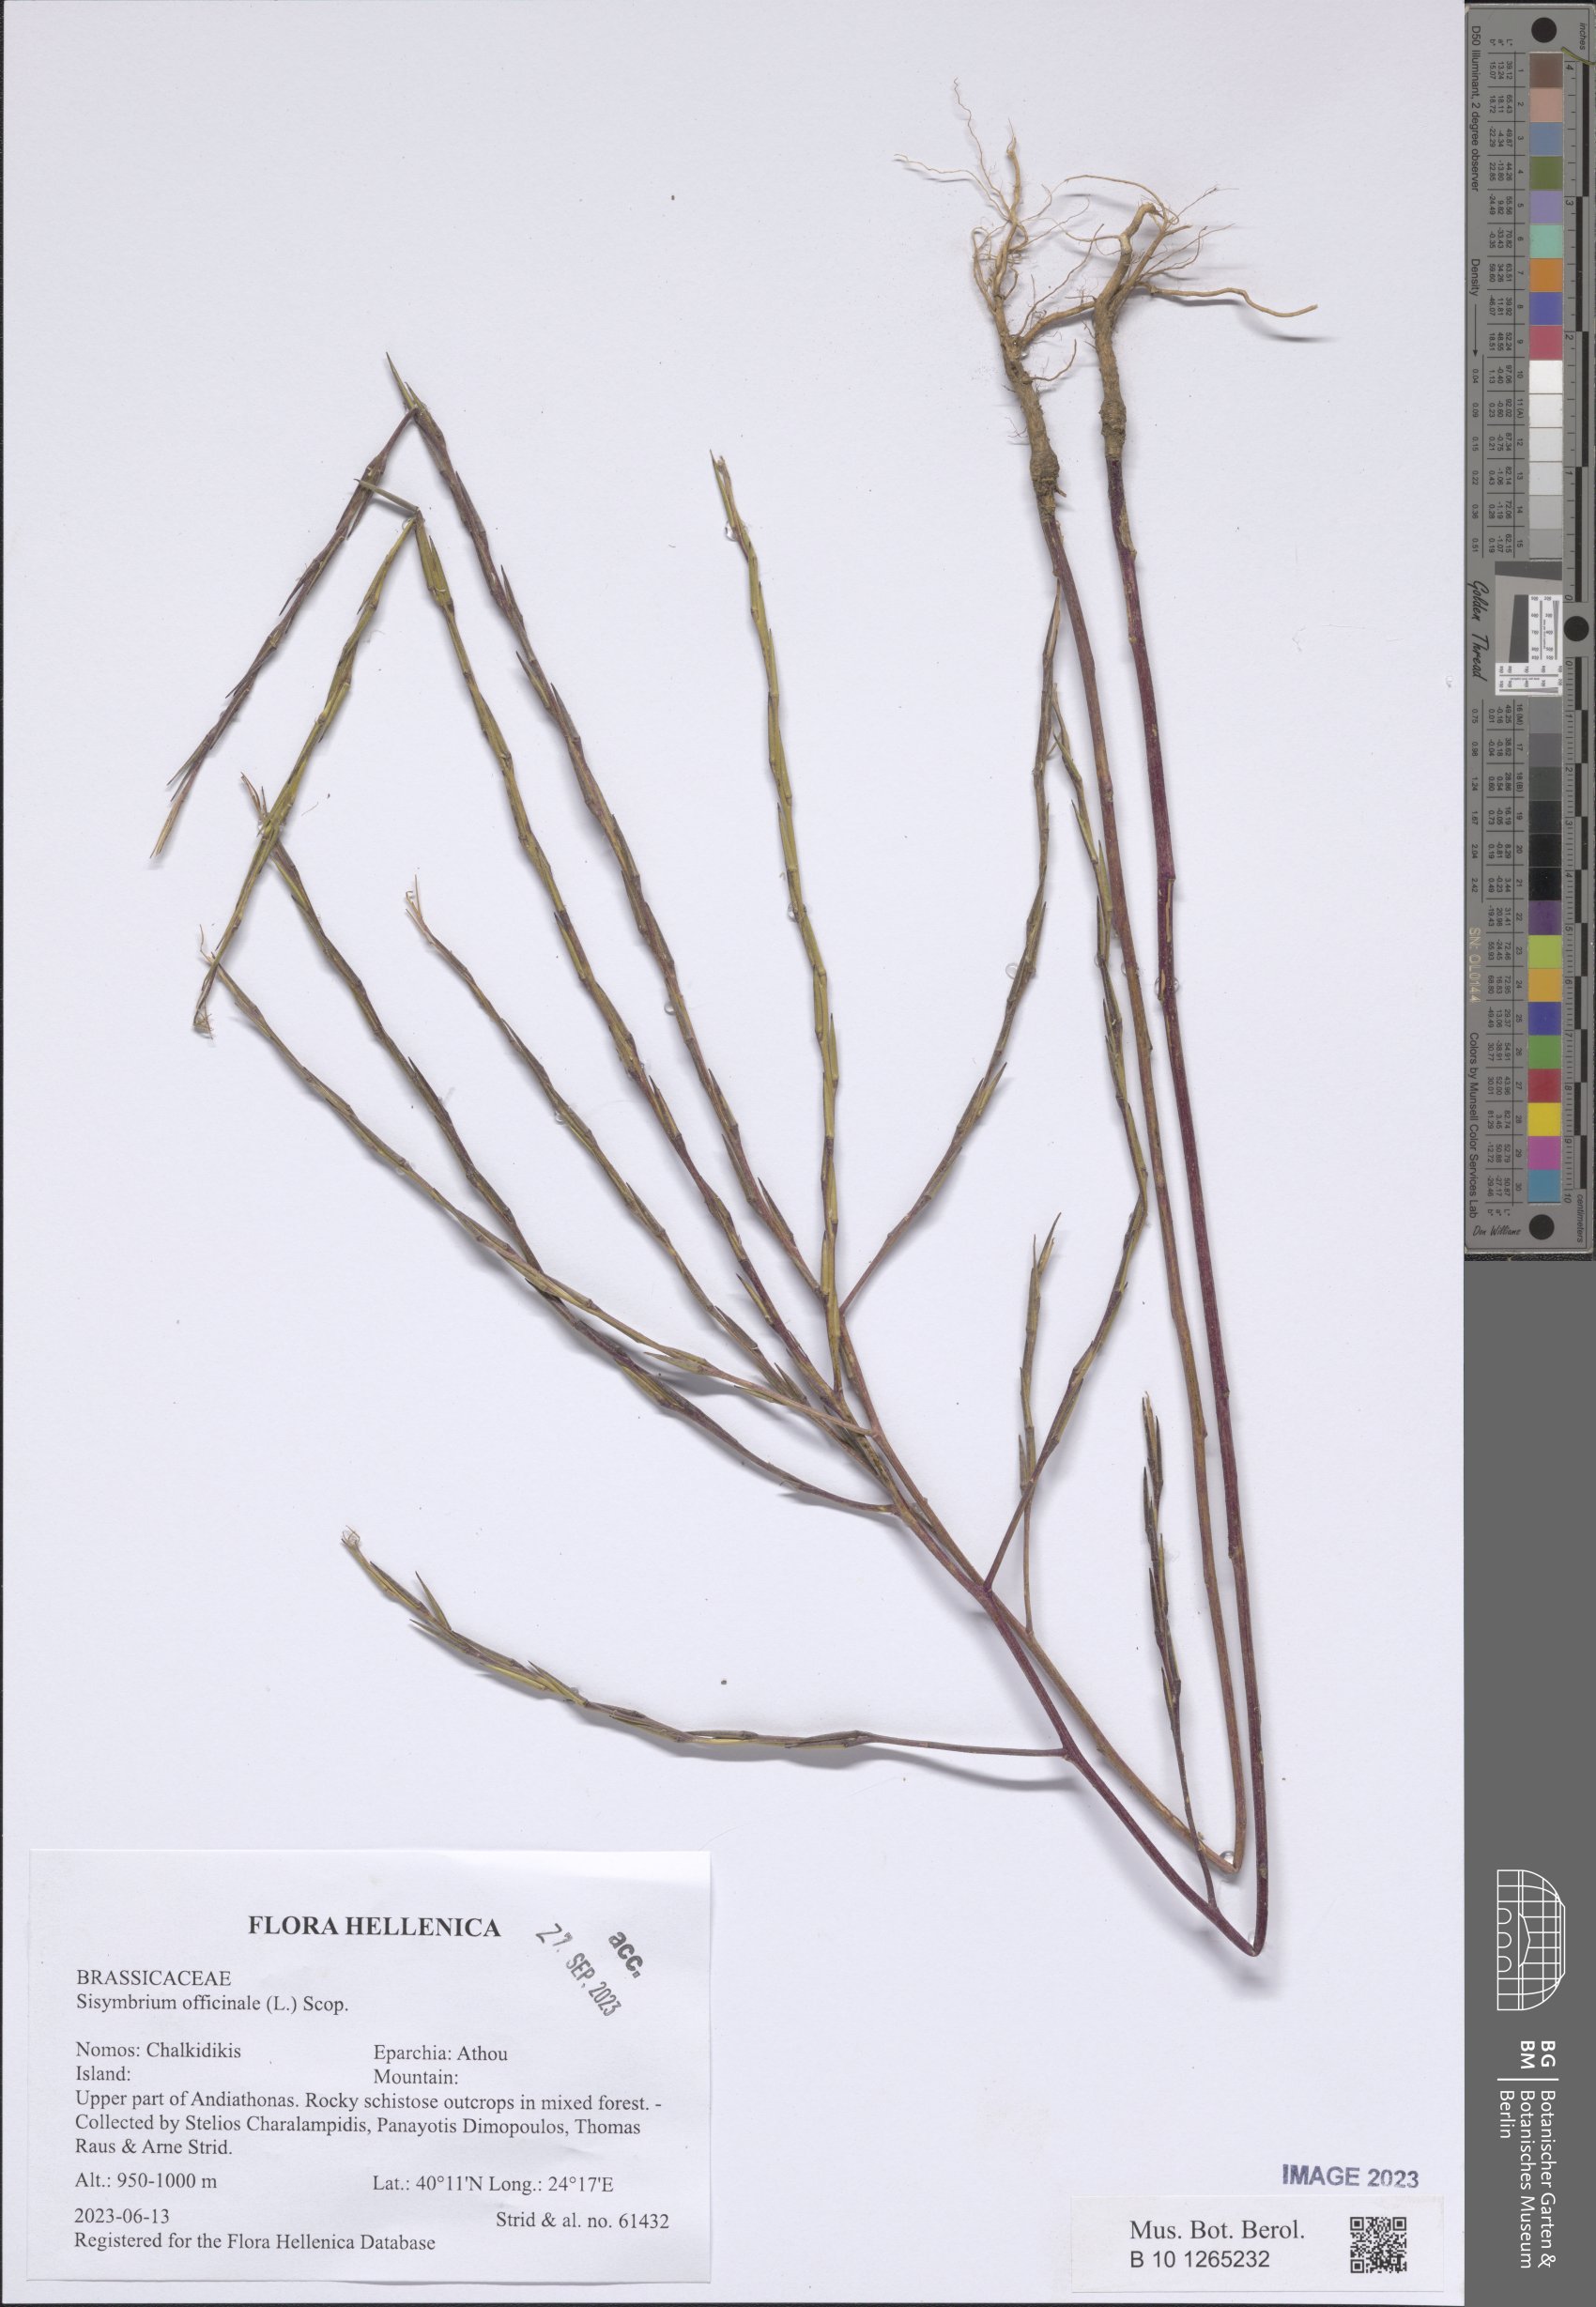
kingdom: Plantae
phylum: Tracheophyta
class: Magnoliopsida
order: Brassicales
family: Brassicaceae
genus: Sisymbrium
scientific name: Sisymbrium officinale
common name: Hedge mustard
